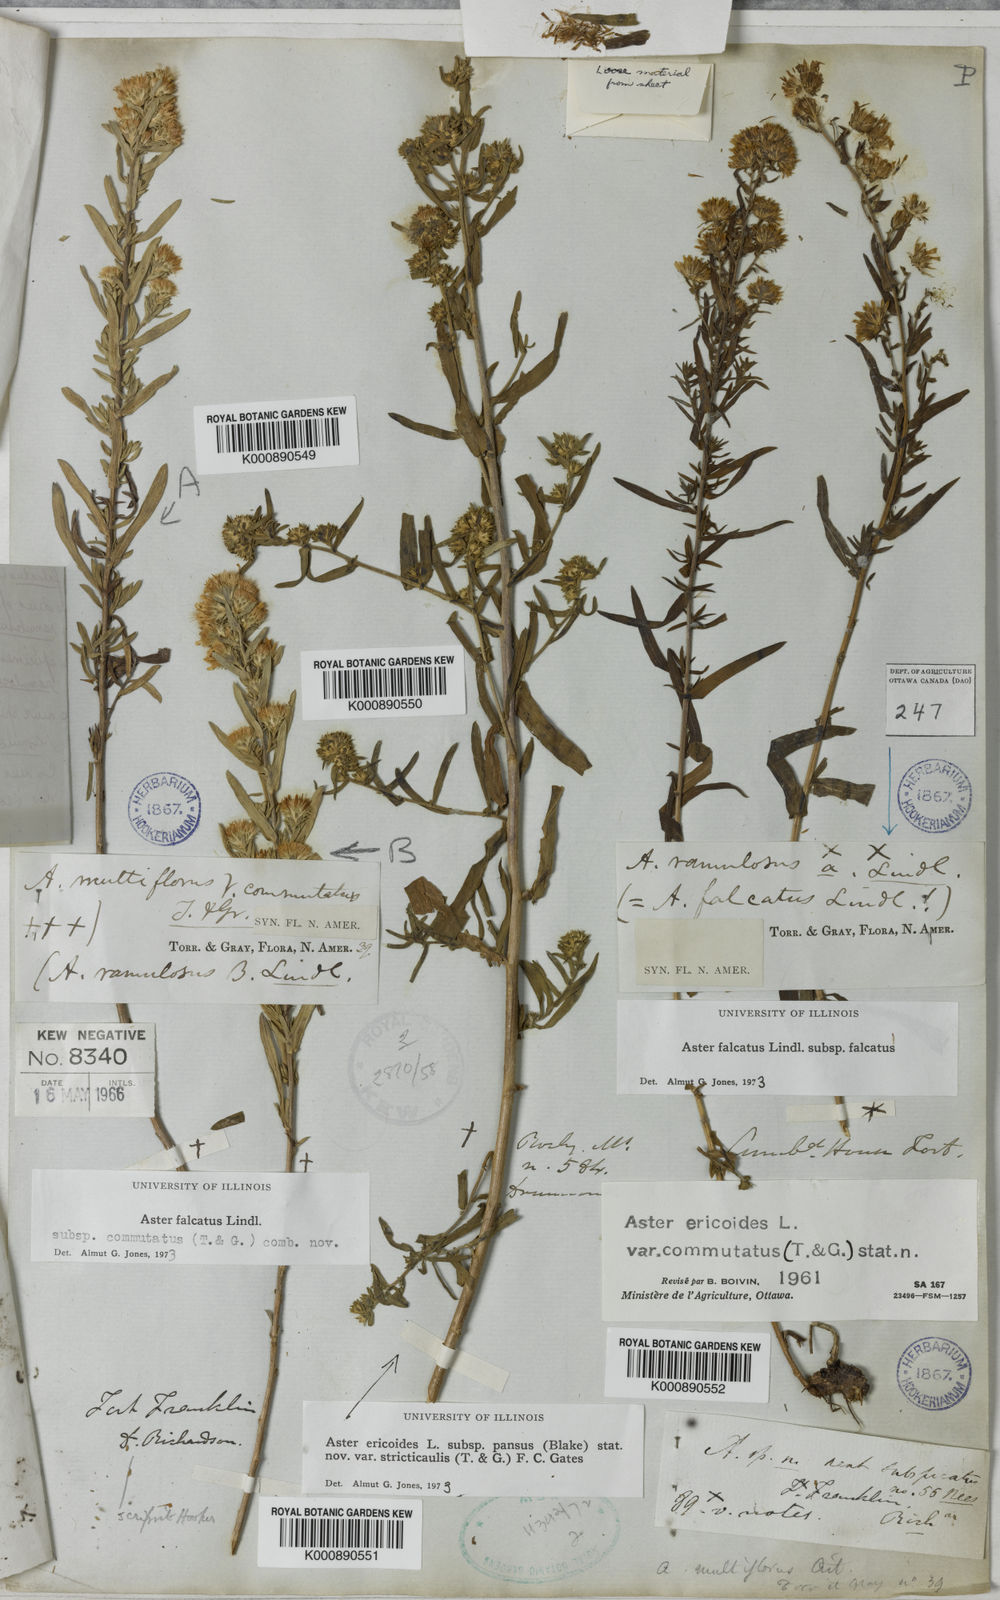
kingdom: Plantae
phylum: Tracheophyta
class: Magnoliopsida
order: Asterales
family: Asteraceae
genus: Aster
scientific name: Aster
